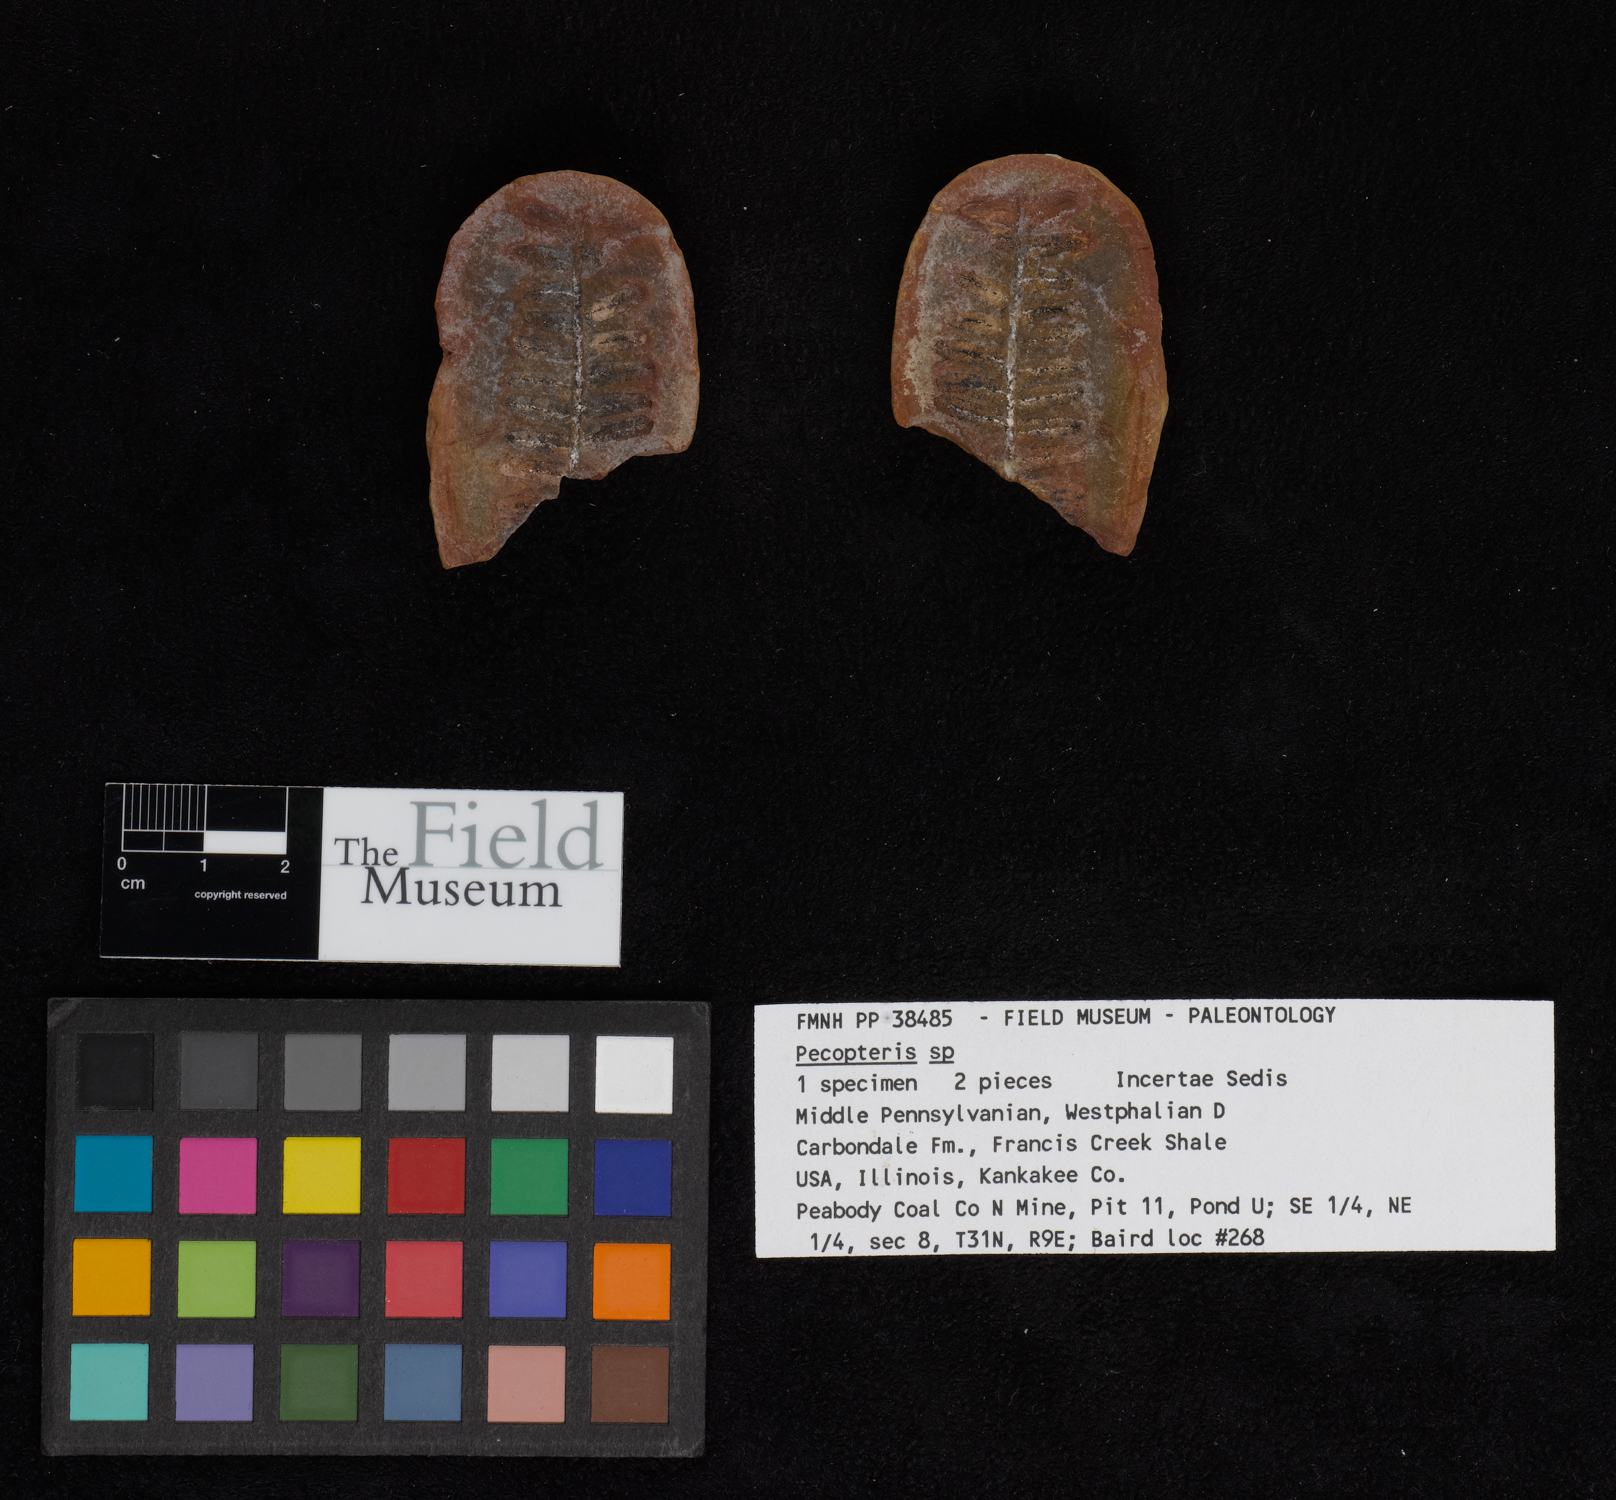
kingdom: Plantae
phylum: Tracheophyta
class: Polypodiopsida
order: Marattiales
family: Asterothecaceae
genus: Pecopteris
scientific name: Pecopteris
